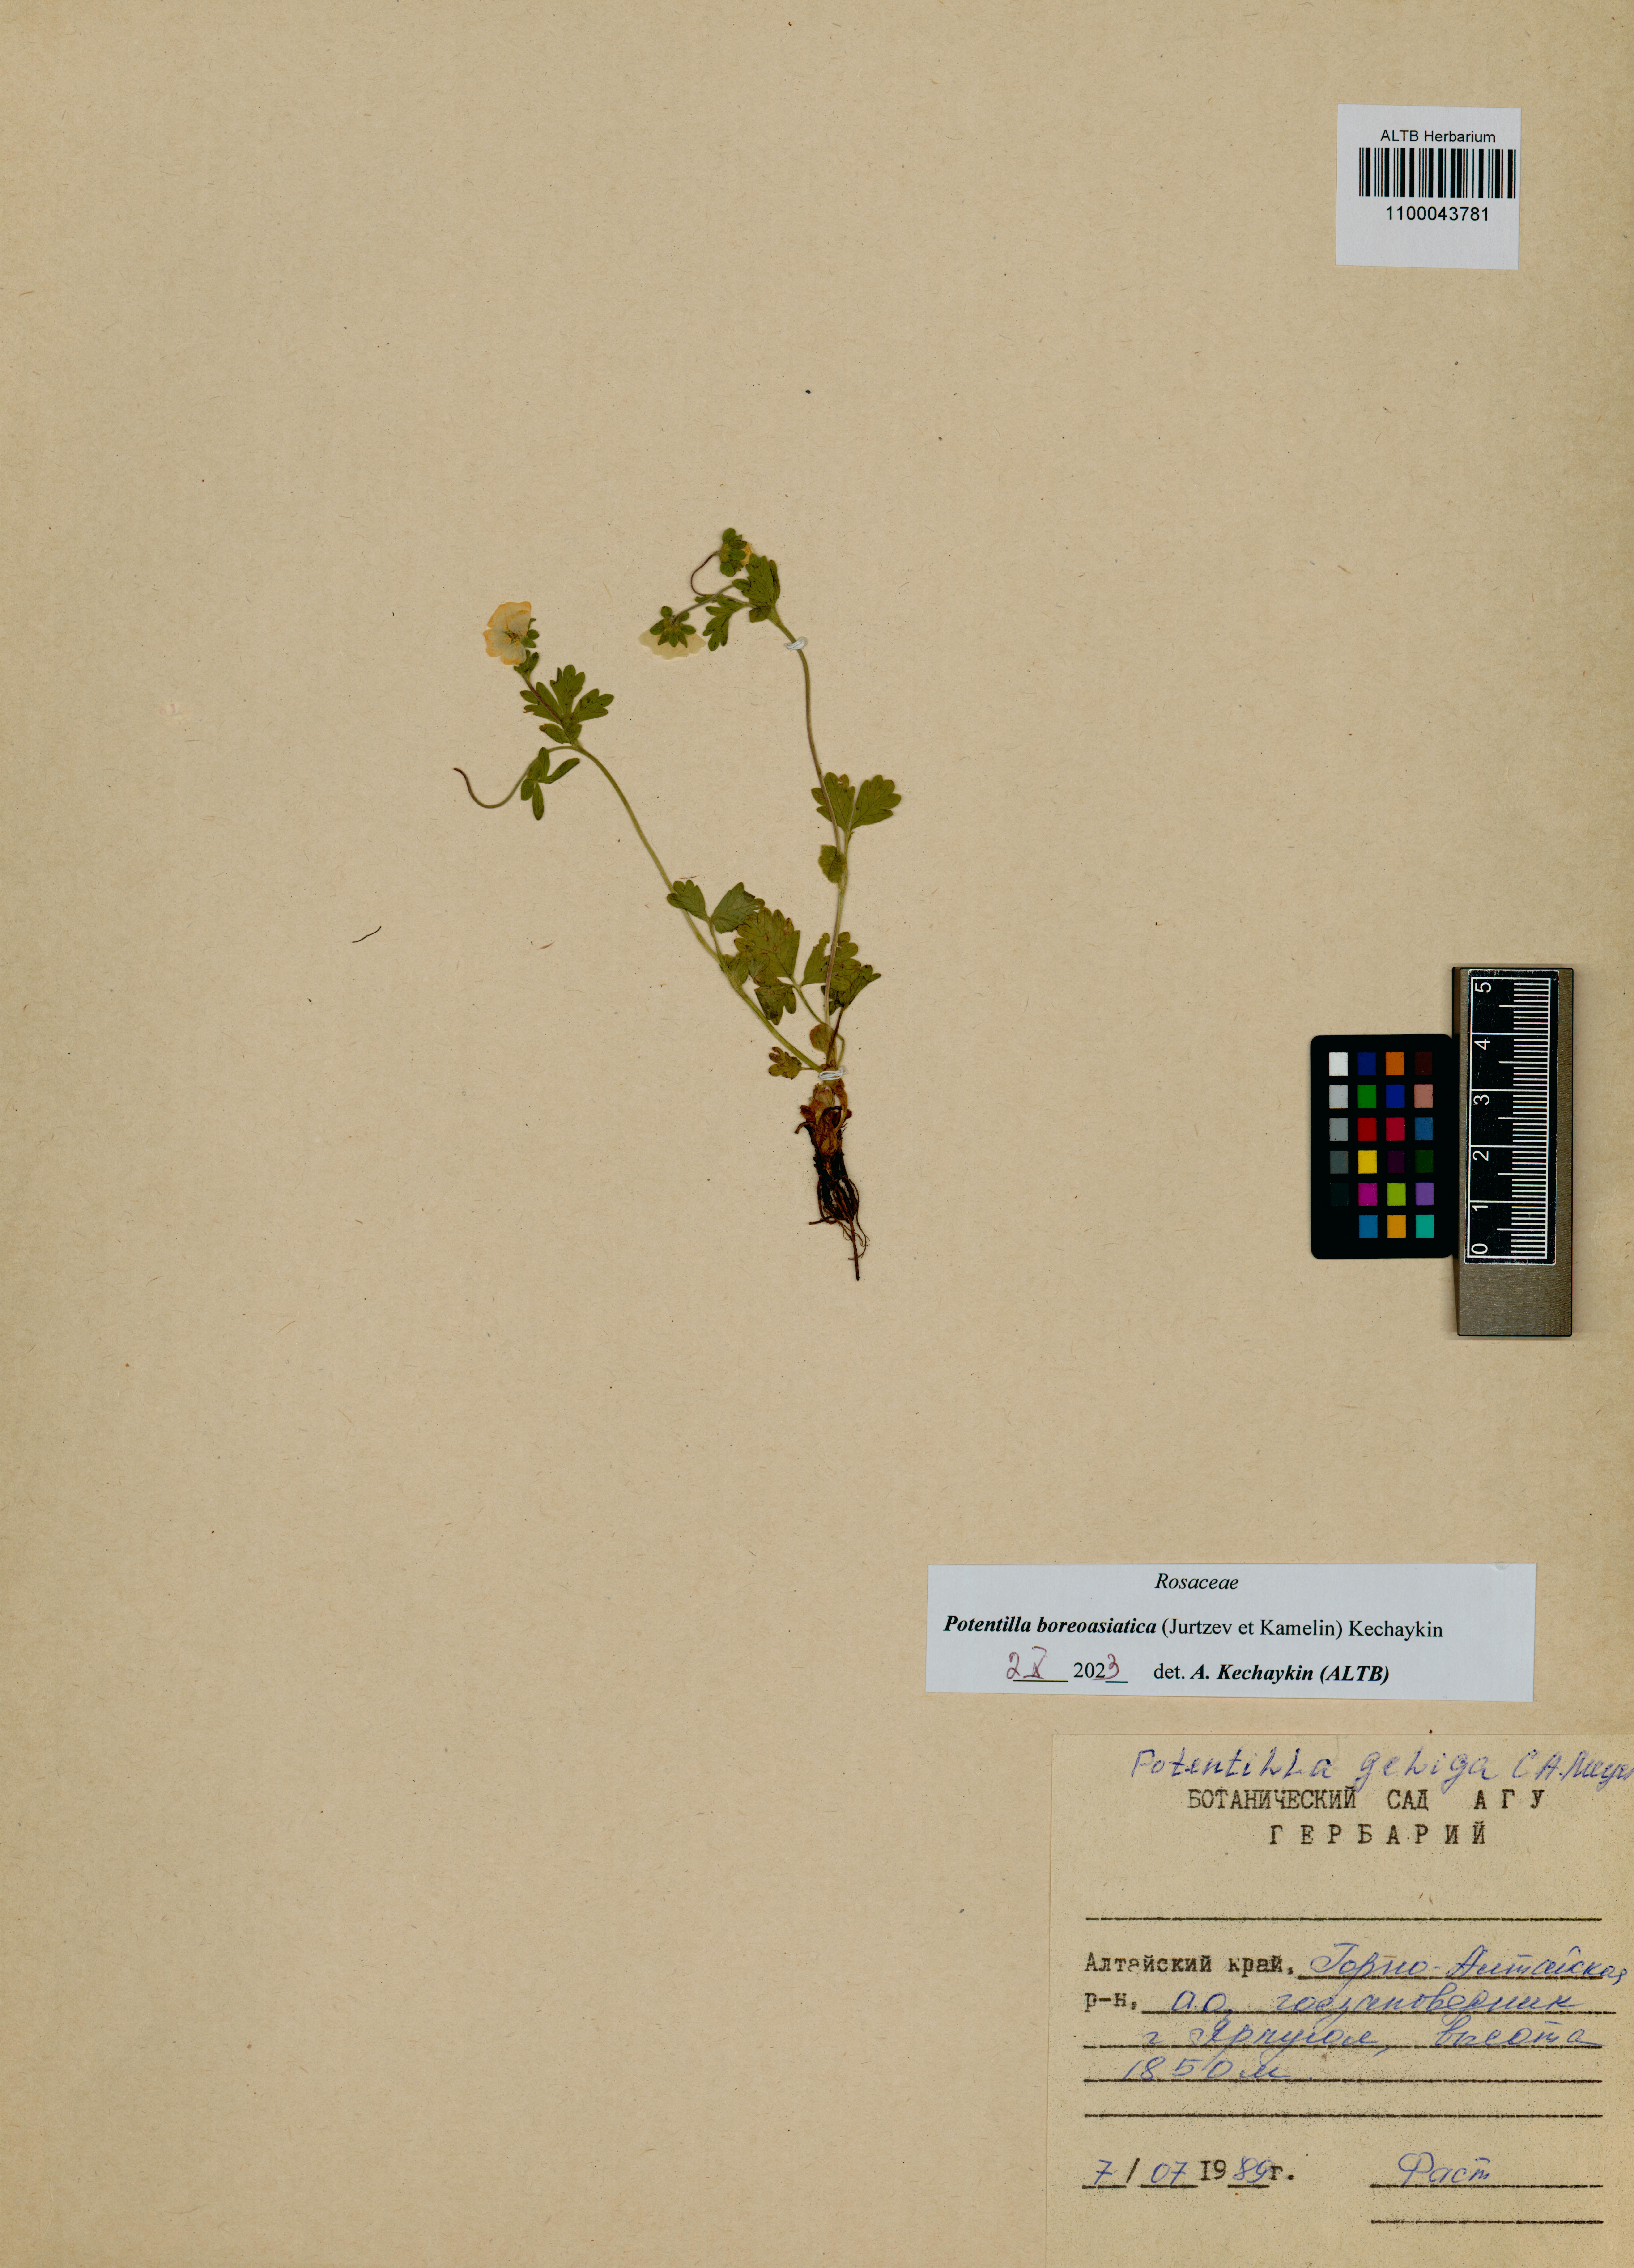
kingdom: Plantae
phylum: Tracheophyta
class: Magnoliopsida
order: Rosales
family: Rosaceae
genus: Potentilla
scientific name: Potentilla
